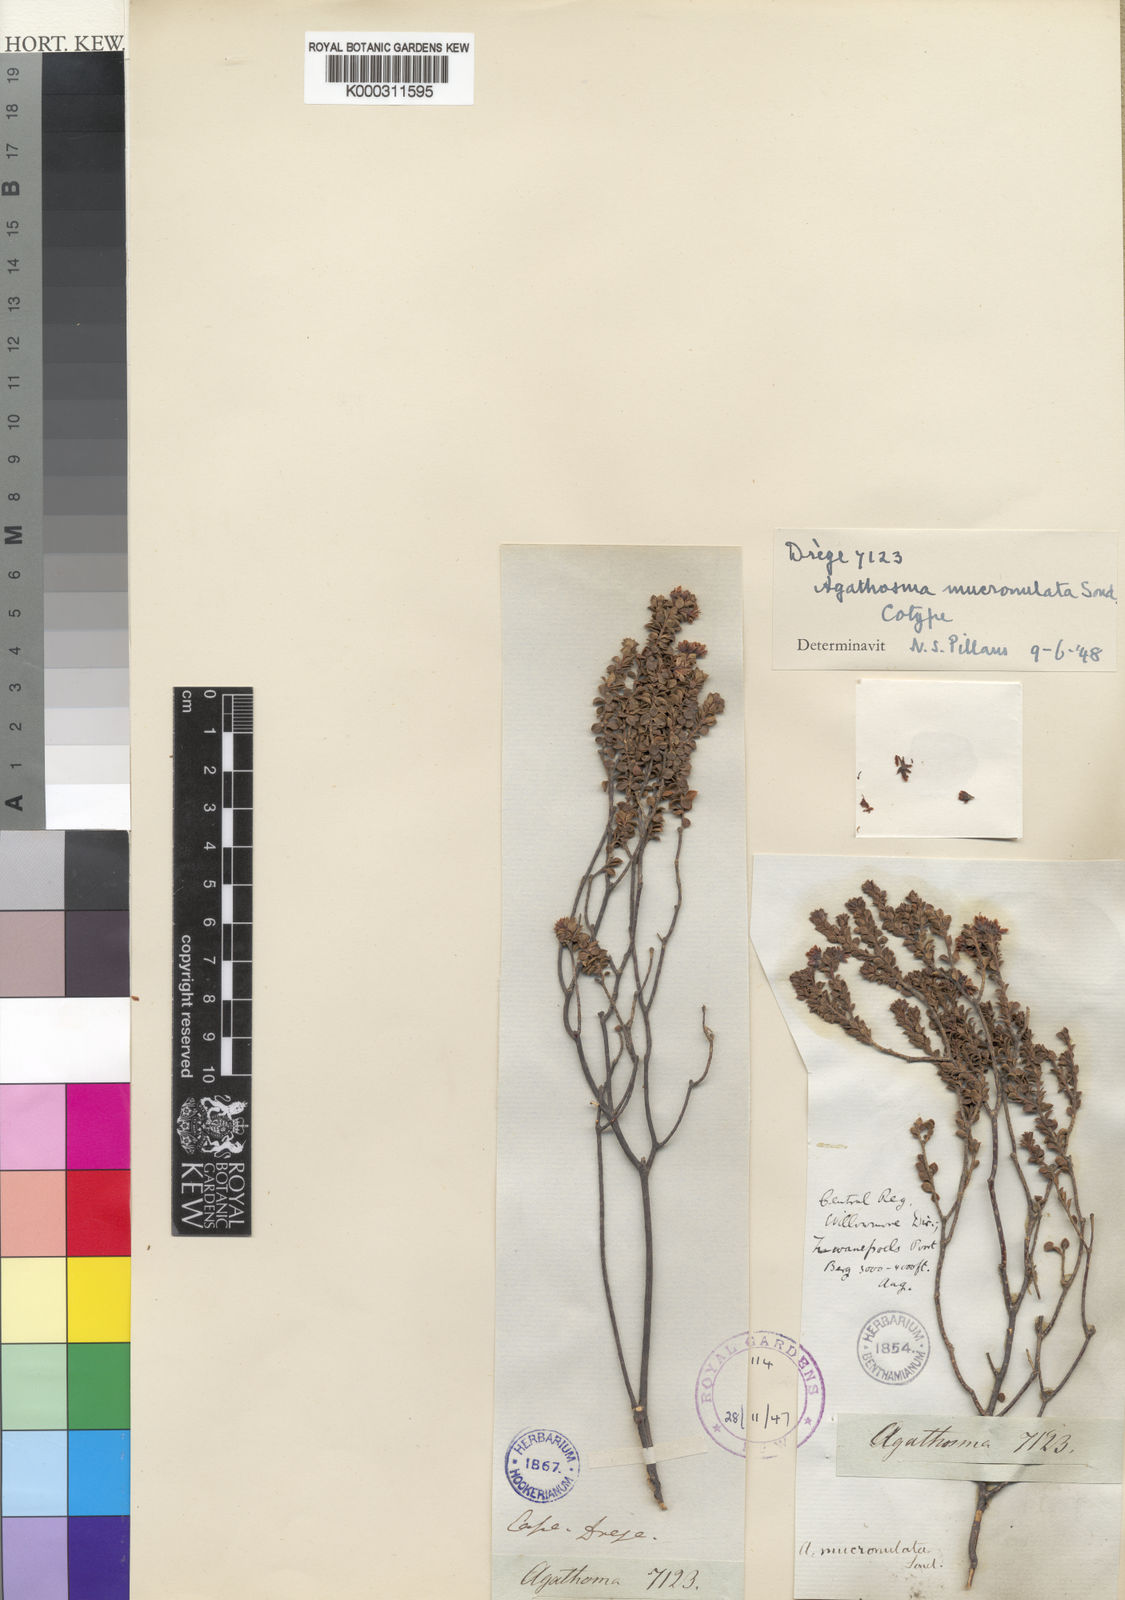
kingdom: Plantae
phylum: Tracheophyta
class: Magnoliopsida
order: Sapindales
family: Rutaceae
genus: Agathosma
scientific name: Agathosma mucronulata
